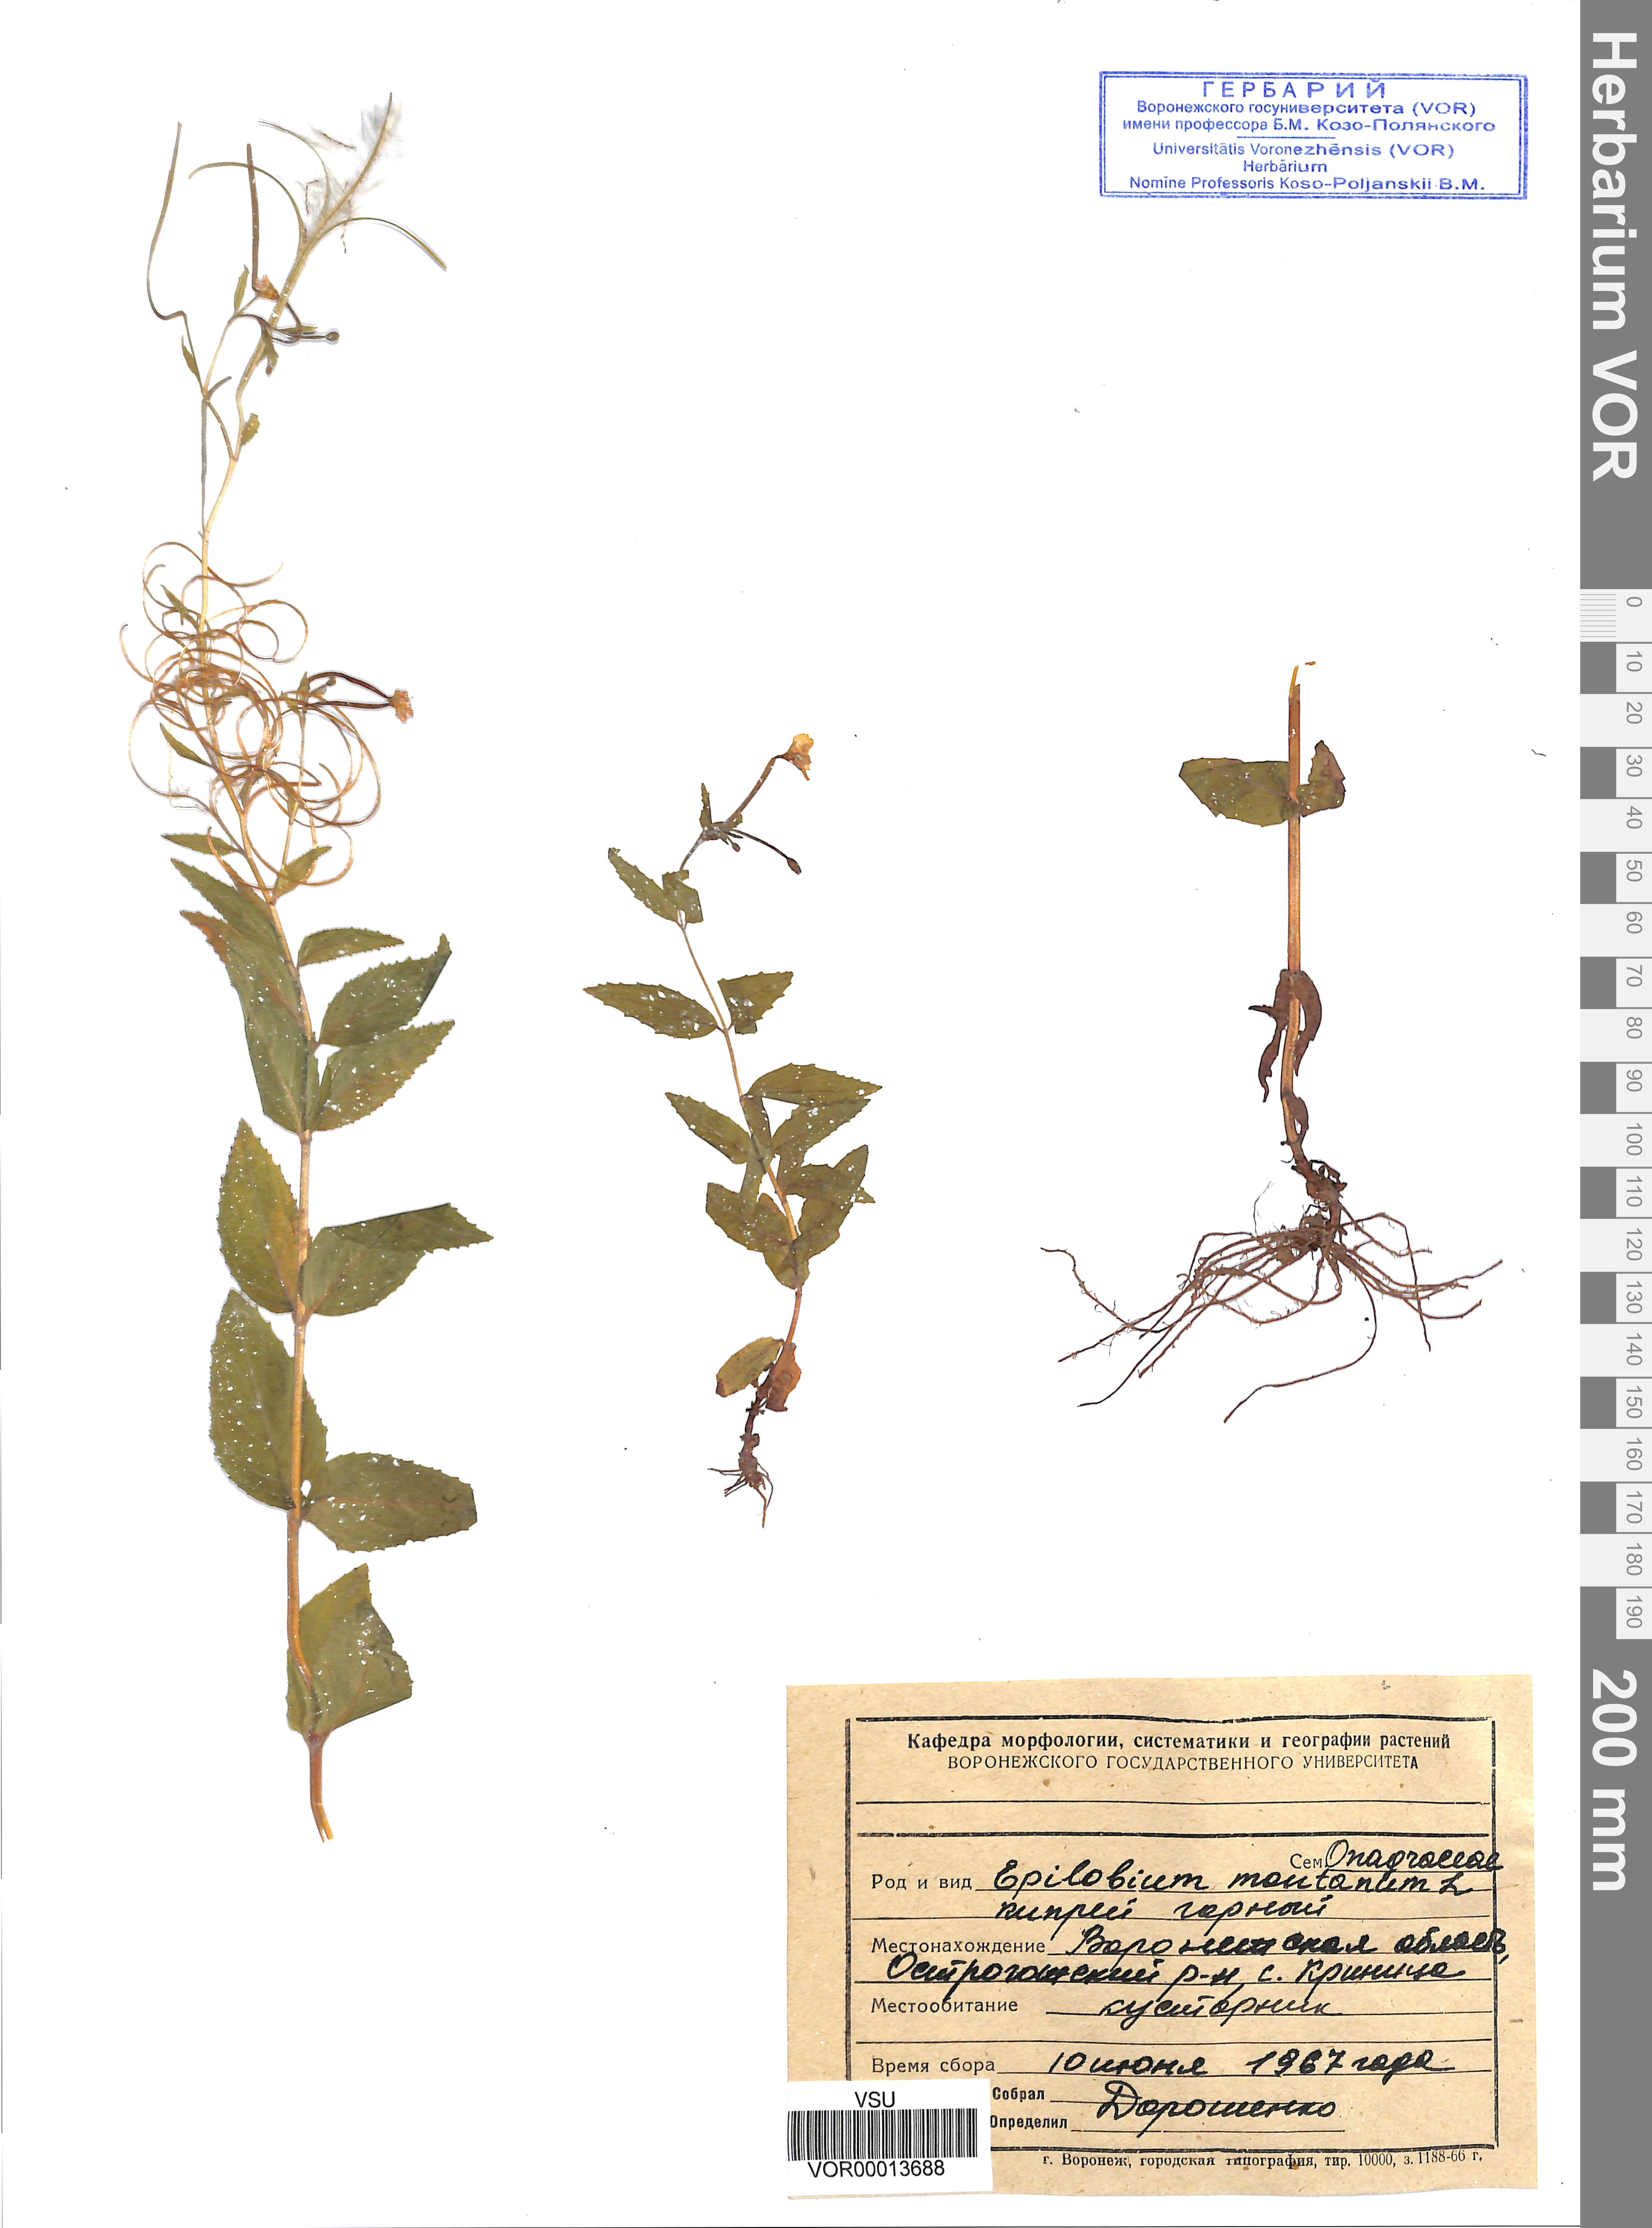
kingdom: Plantae
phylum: Tracheophyta
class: Magnoliopsida
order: Myrtales
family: Onagraceae
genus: Epilobium
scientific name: Epilobium montanum
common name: Broad-leaved willowherb
